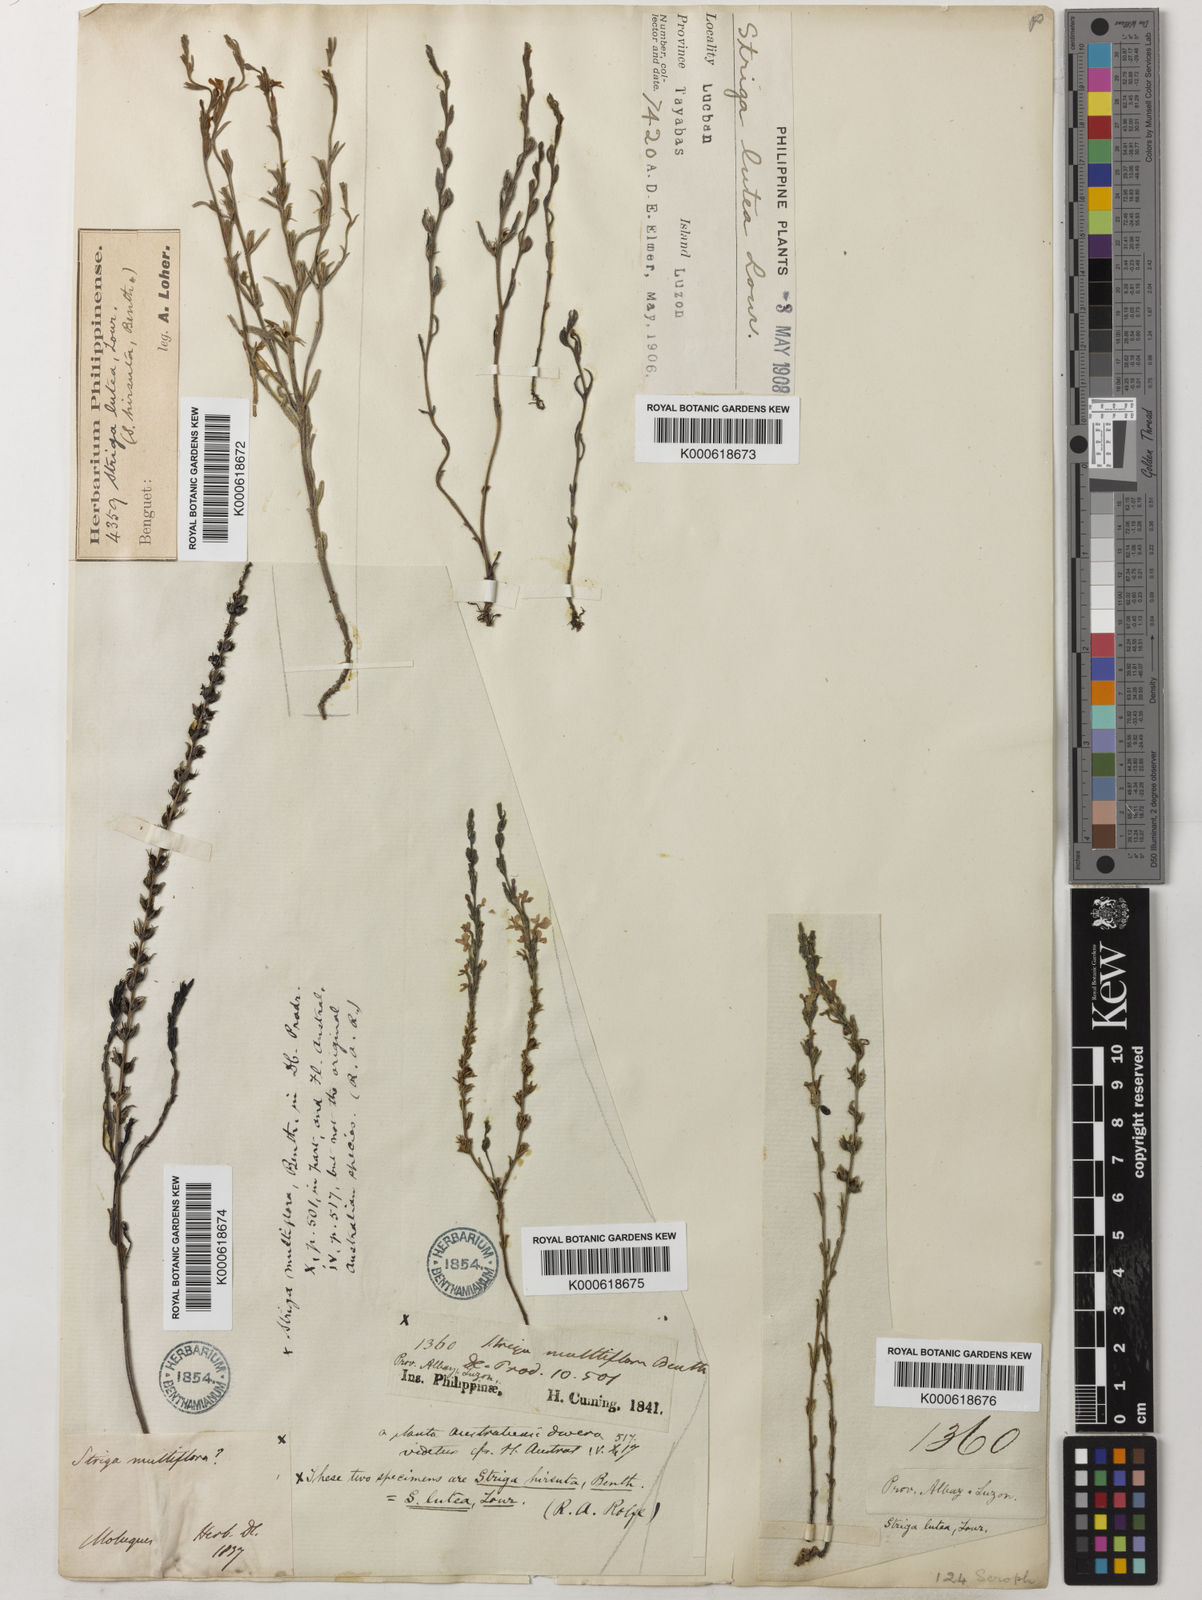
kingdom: Plantae
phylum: Tracheophyta
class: Magnoliopsida
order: Lamiales
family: Orobanchaceae
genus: Striga
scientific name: Striga lutea
